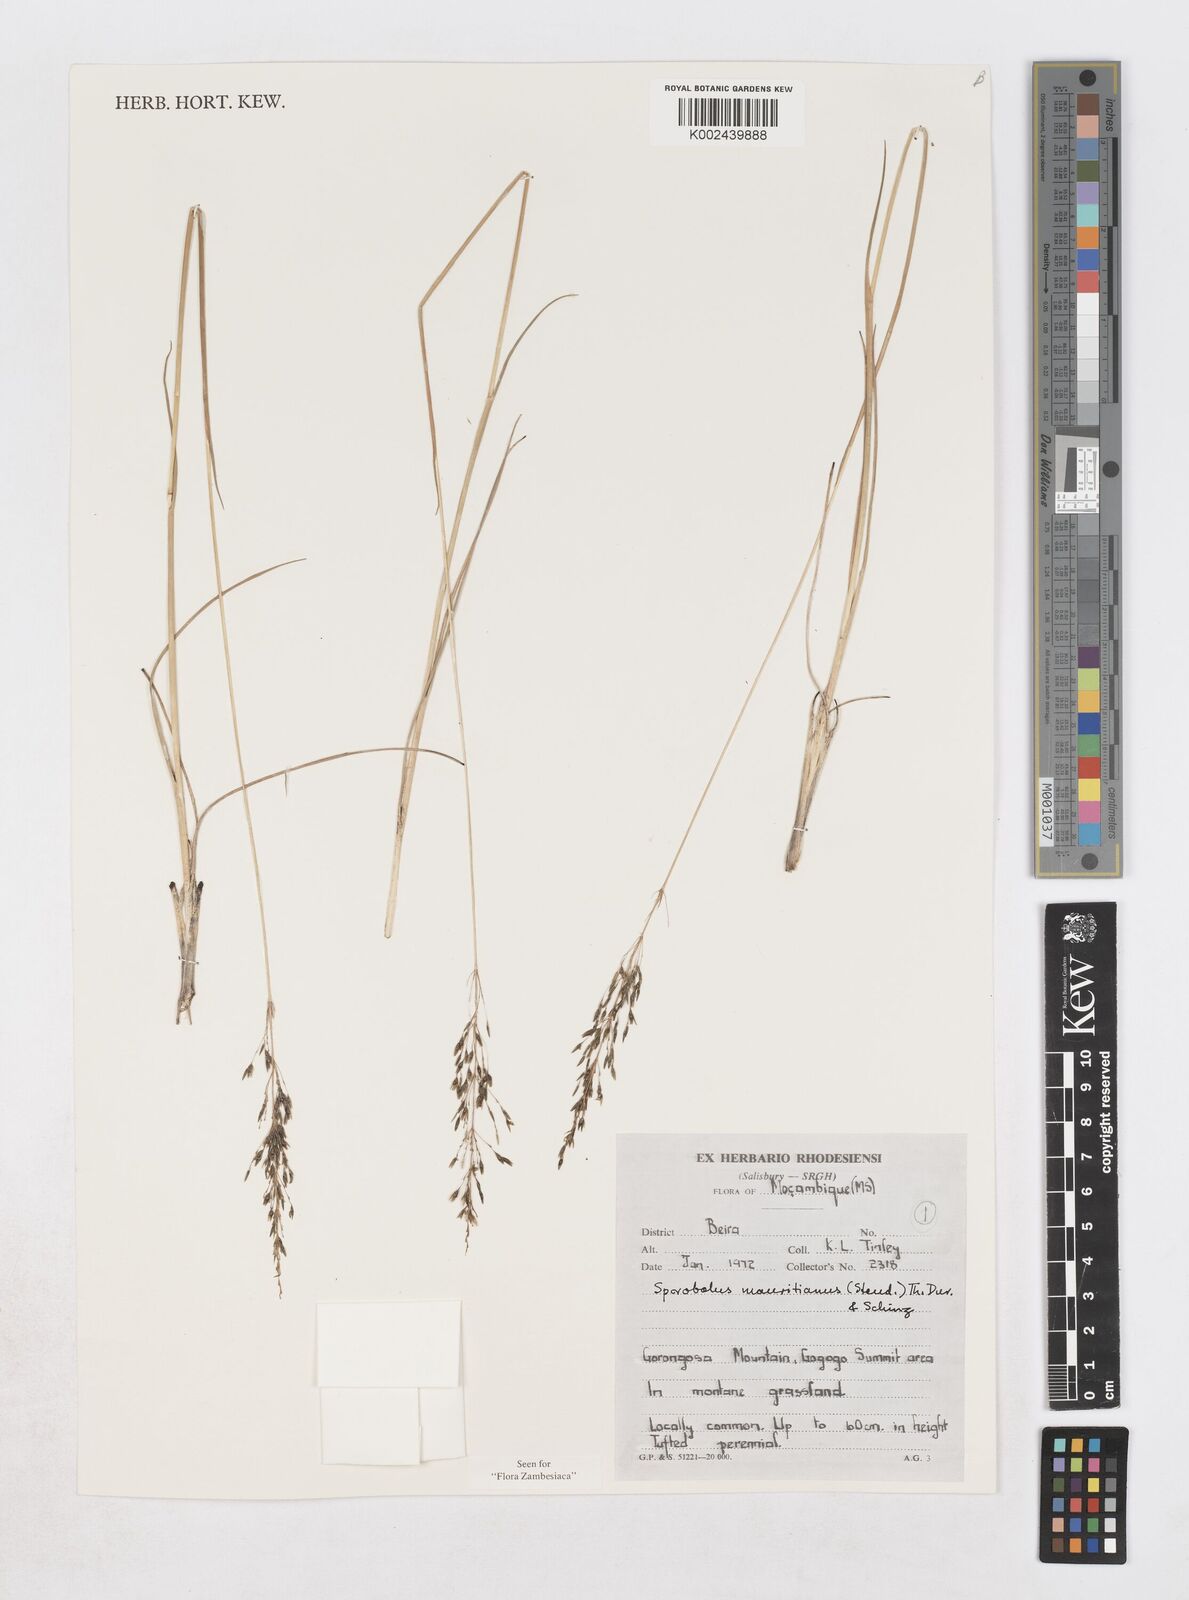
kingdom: Plantae
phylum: Tracheophyta
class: Liliopsida
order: Poales
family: Poaceae
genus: Sporobolus
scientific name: Sporobolus subulatus
